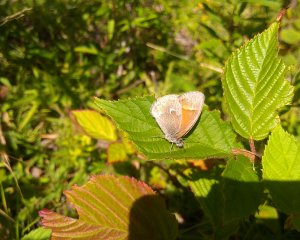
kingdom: Animalia
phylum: Arthropoda
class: Insecta
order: Lepidoptera
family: Nymphalidae
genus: Coenonympha
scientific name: Coenonympha tullia
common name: Large Heath
